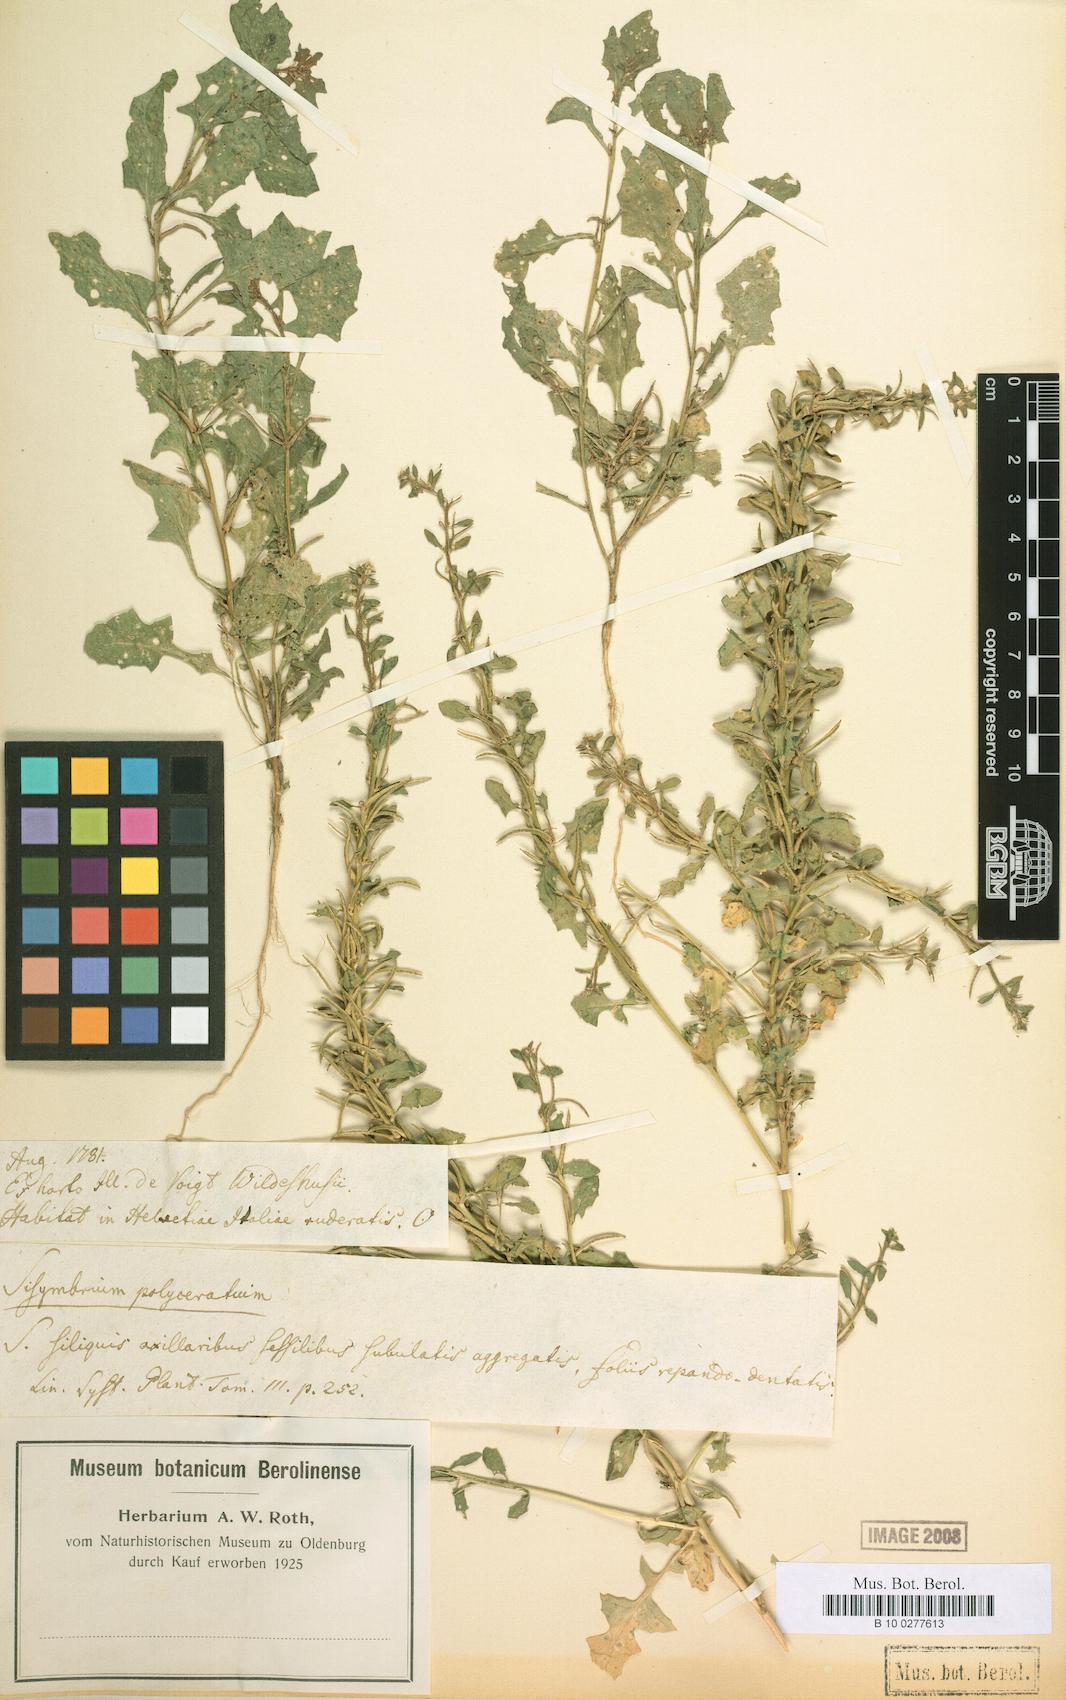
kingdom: Plantae
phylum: Tracheophyta
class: Magnoliopsida
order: Brassicales
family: Brassicaceae
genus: Sisymbrium
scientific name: Sisymbrium polyceratium
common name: Shortfruit hedgemustard
